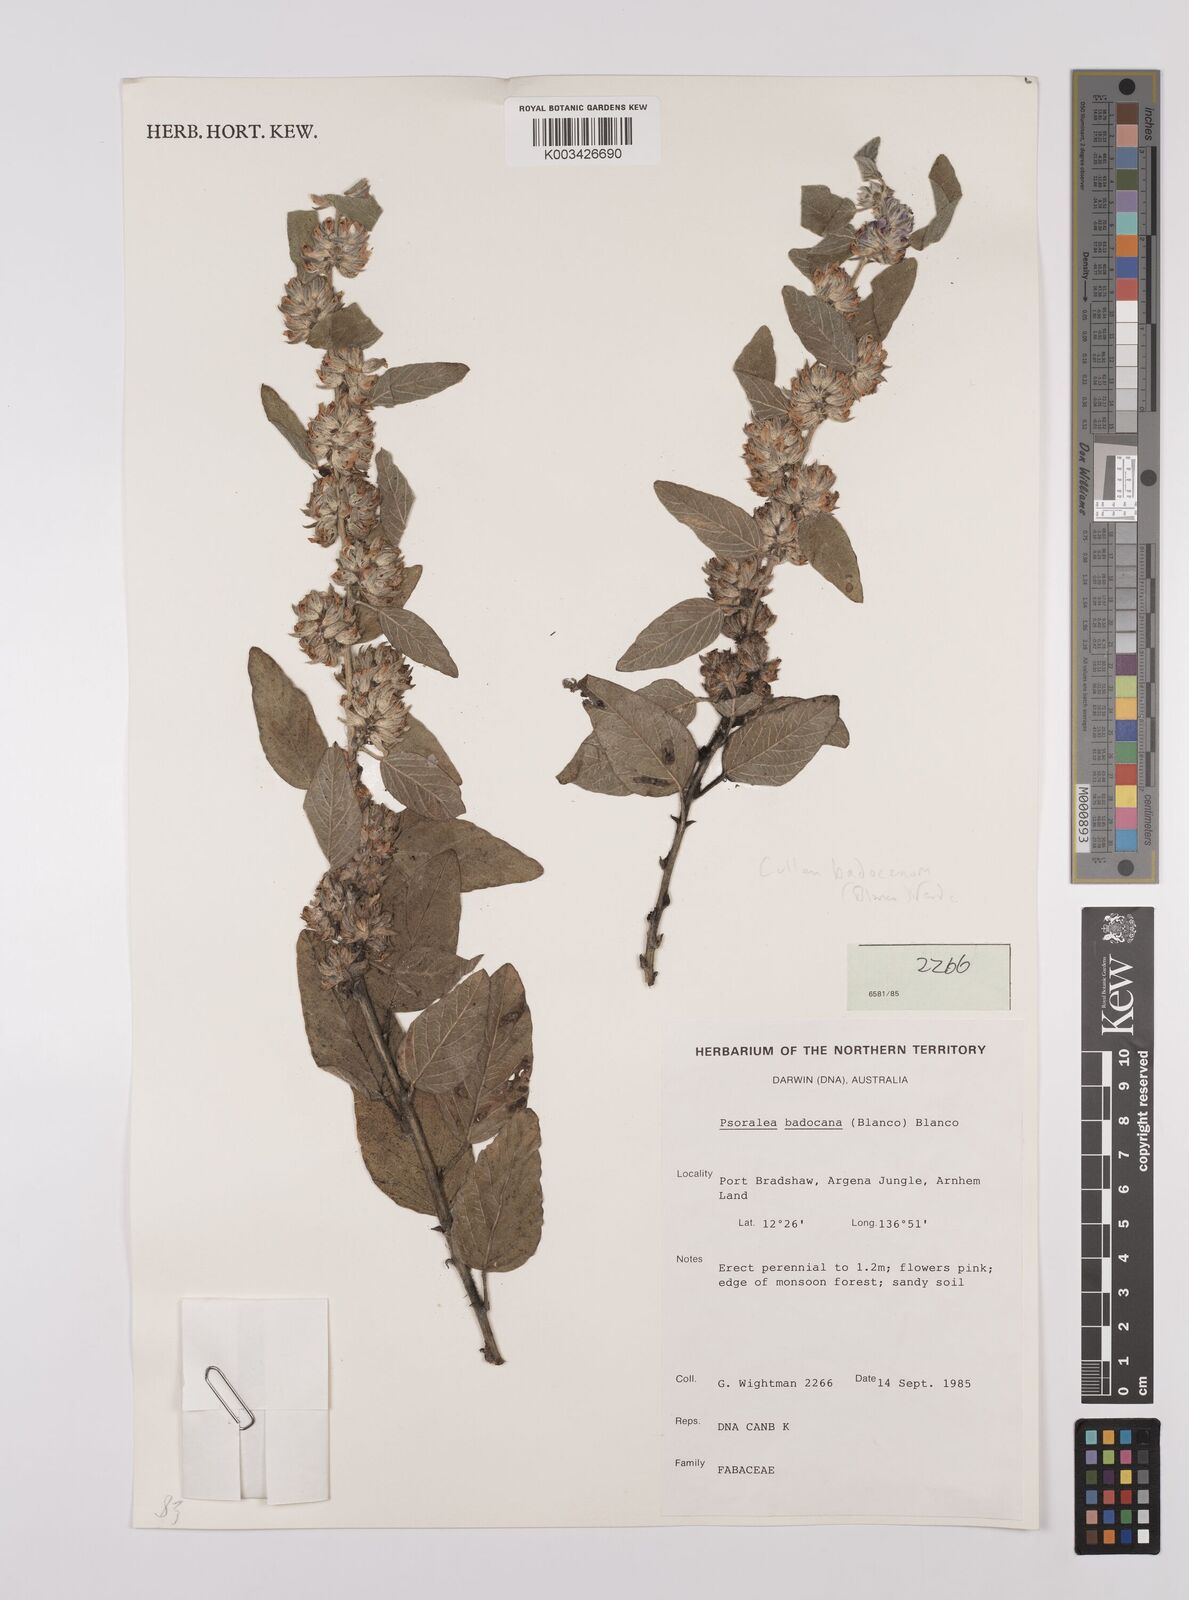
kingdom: Plantae
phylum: Tracheophyta
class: Magnoliopsida
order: Fabales
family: Fabaceae
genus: Cullen
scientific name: Cullen badocanum
